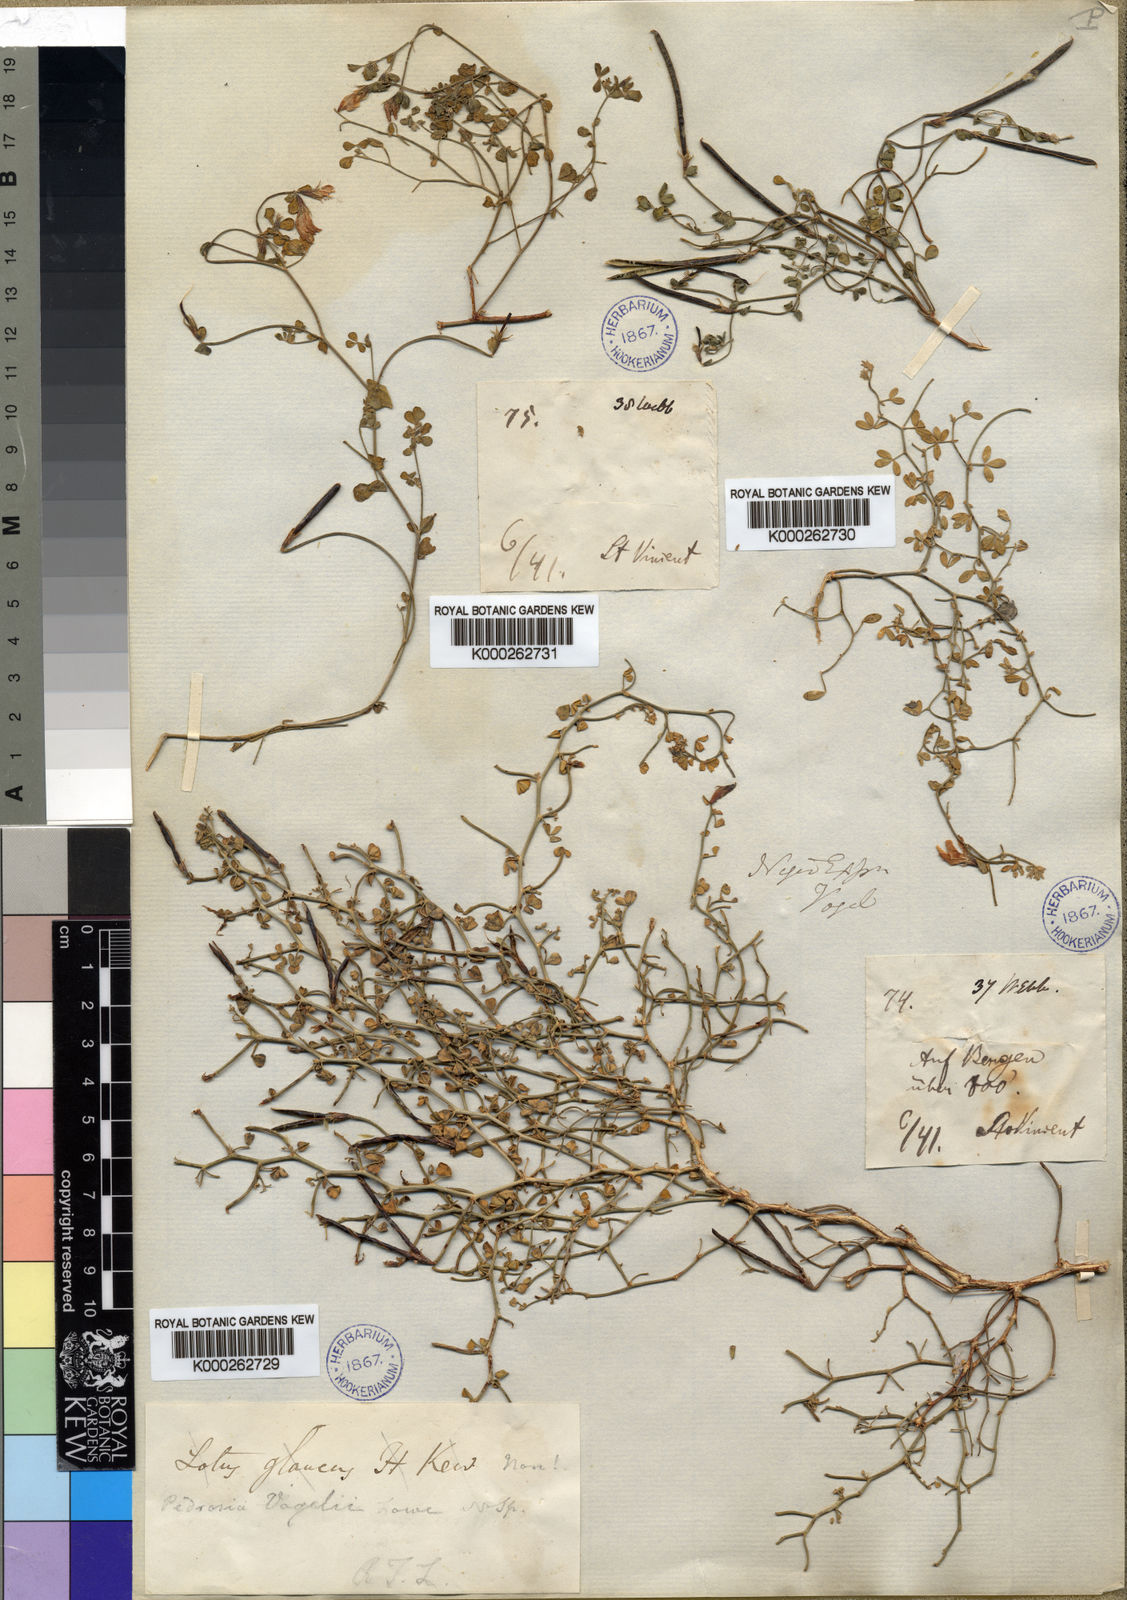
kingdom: Plantae
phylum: Tracheophyta
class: Magnoliopsida
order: Fabales
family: Fabaceae
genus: Lotus
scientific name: Lotus
